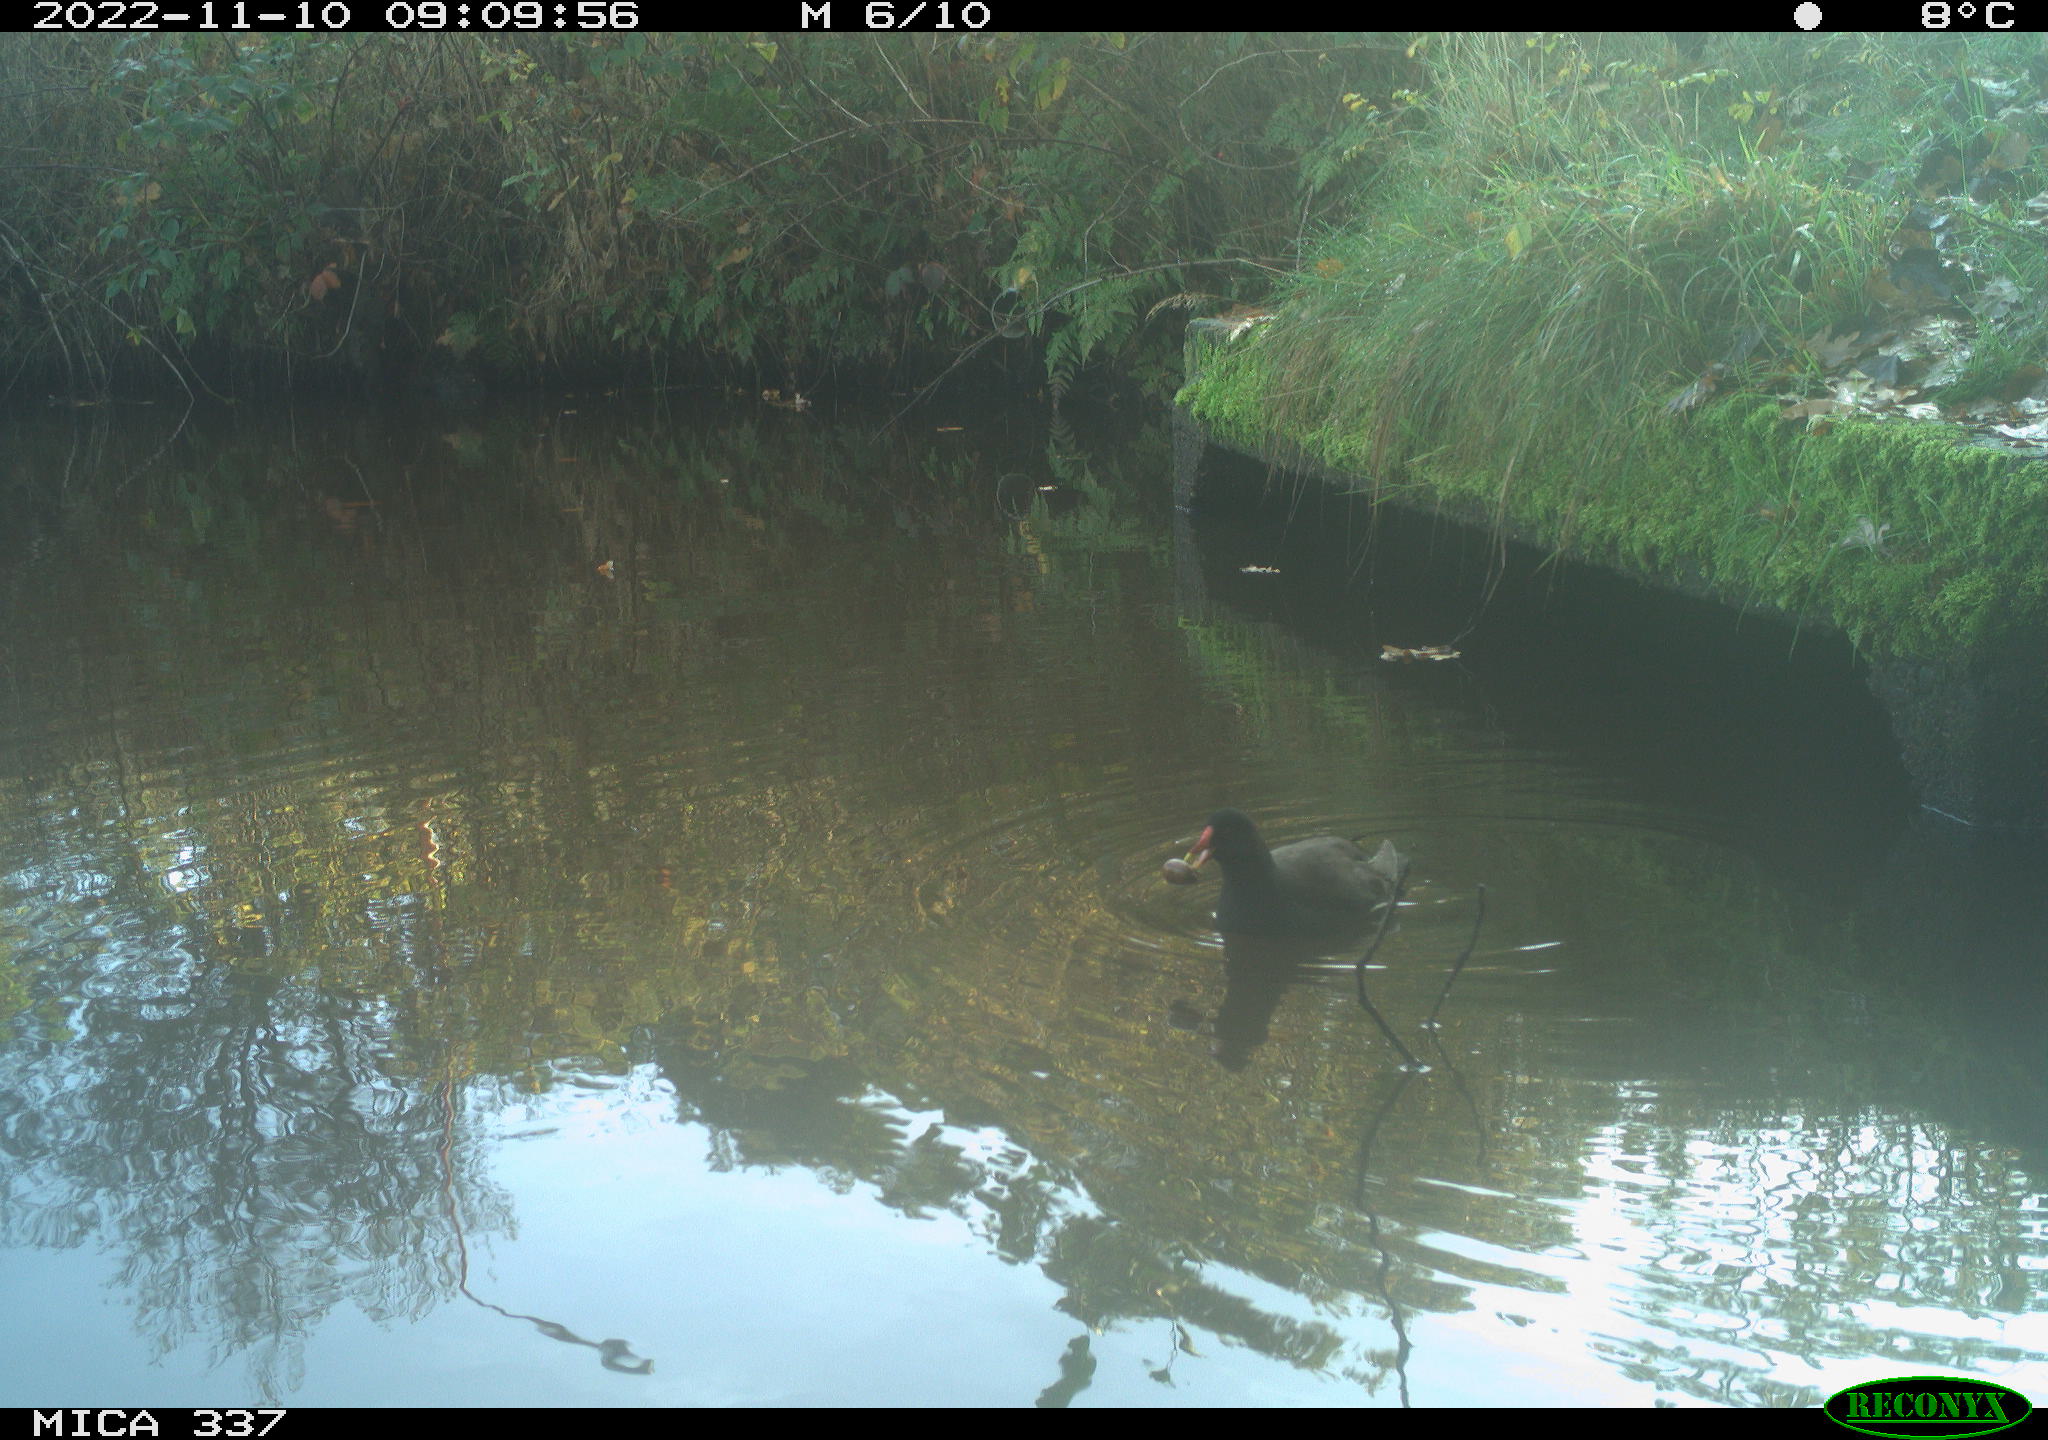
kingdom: Animalia
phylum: Chordata
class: Aves
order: Gruiformes
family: Rallidae
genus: Gallinula
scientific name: Gallinula chloropus
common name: Common moorhen
